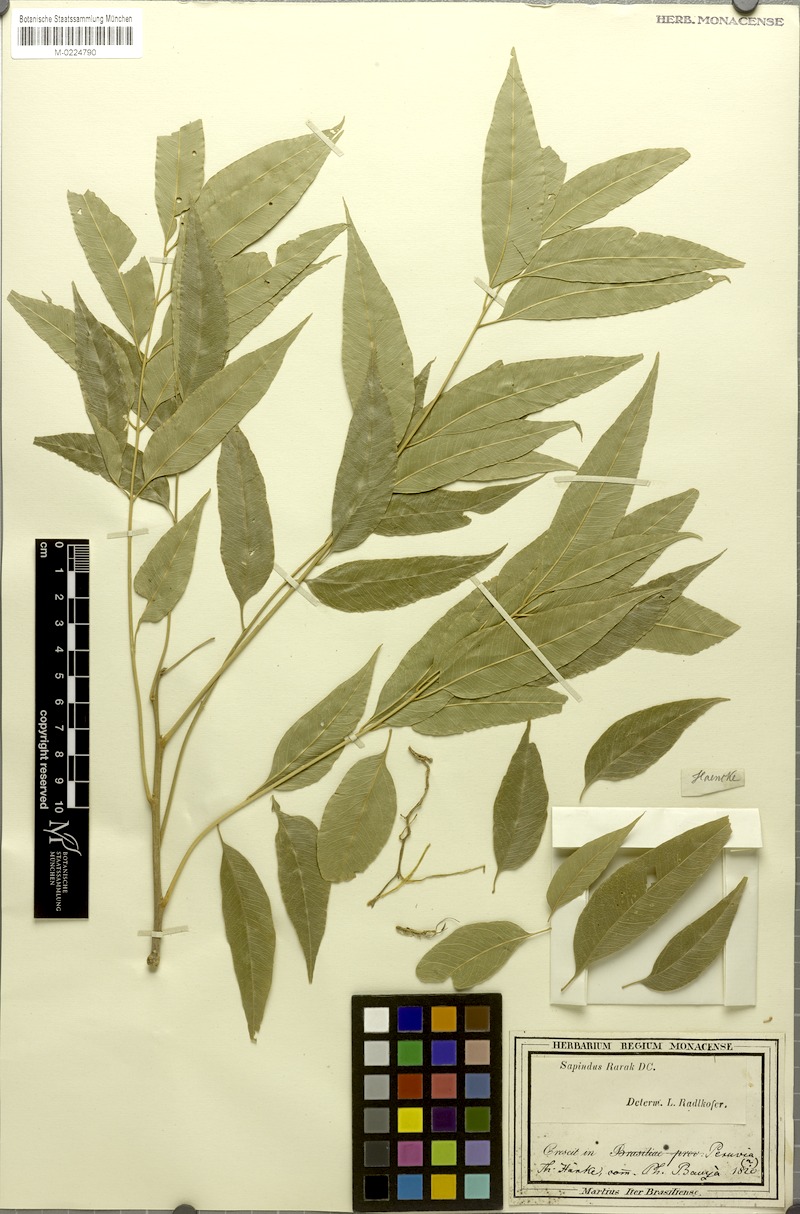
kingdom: Plantae
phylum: Tracheophyta
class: Magnoliopsida
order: Sapindales
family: Sapindaceae
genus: Sapindus
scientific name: Sapindus rarak
